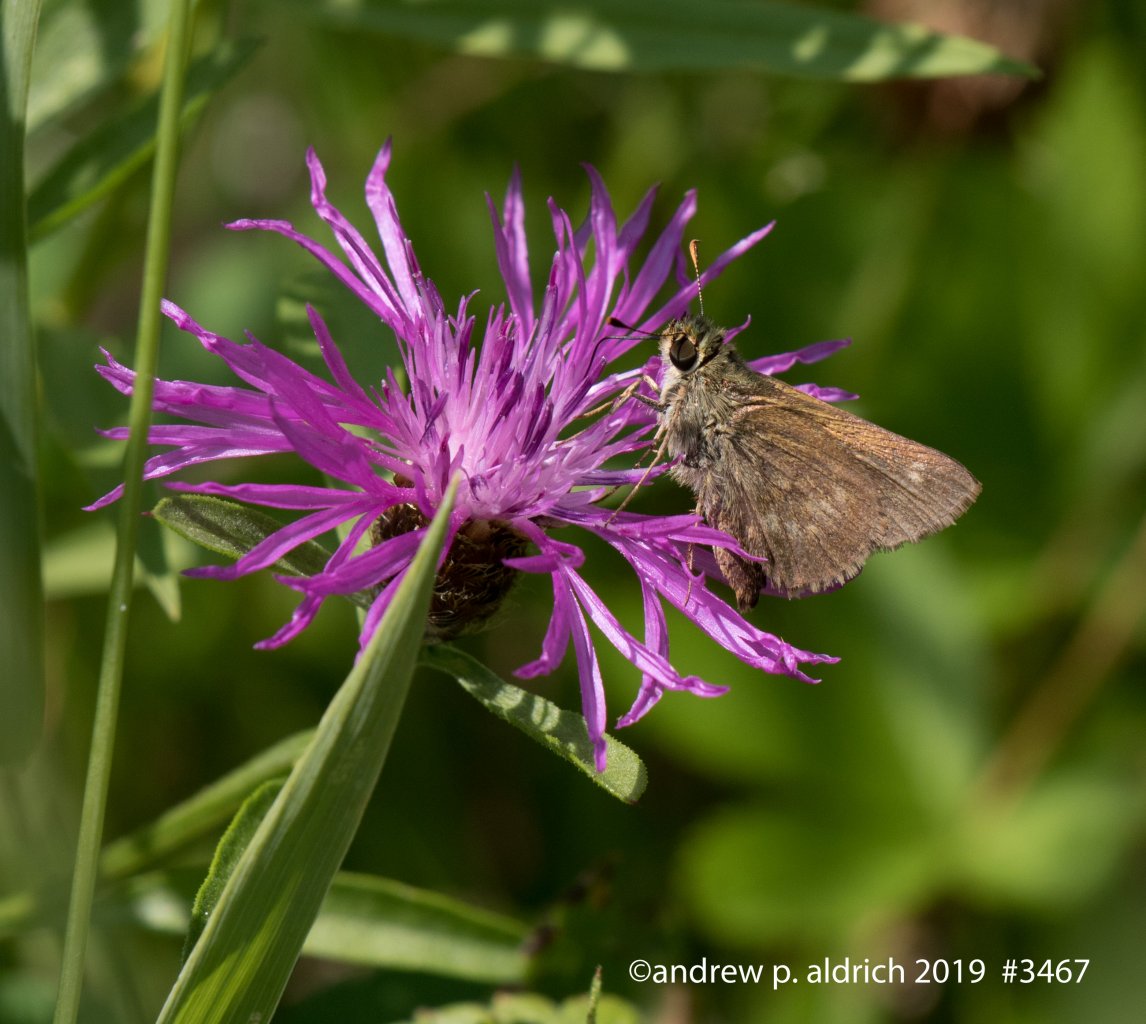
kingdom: Animalia
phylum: Arthropoda
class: Insecta
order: Lepidoptera
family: Hesperiidae
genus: Polites
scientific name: Polites themistocles
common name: Tawny-edged Skipper
